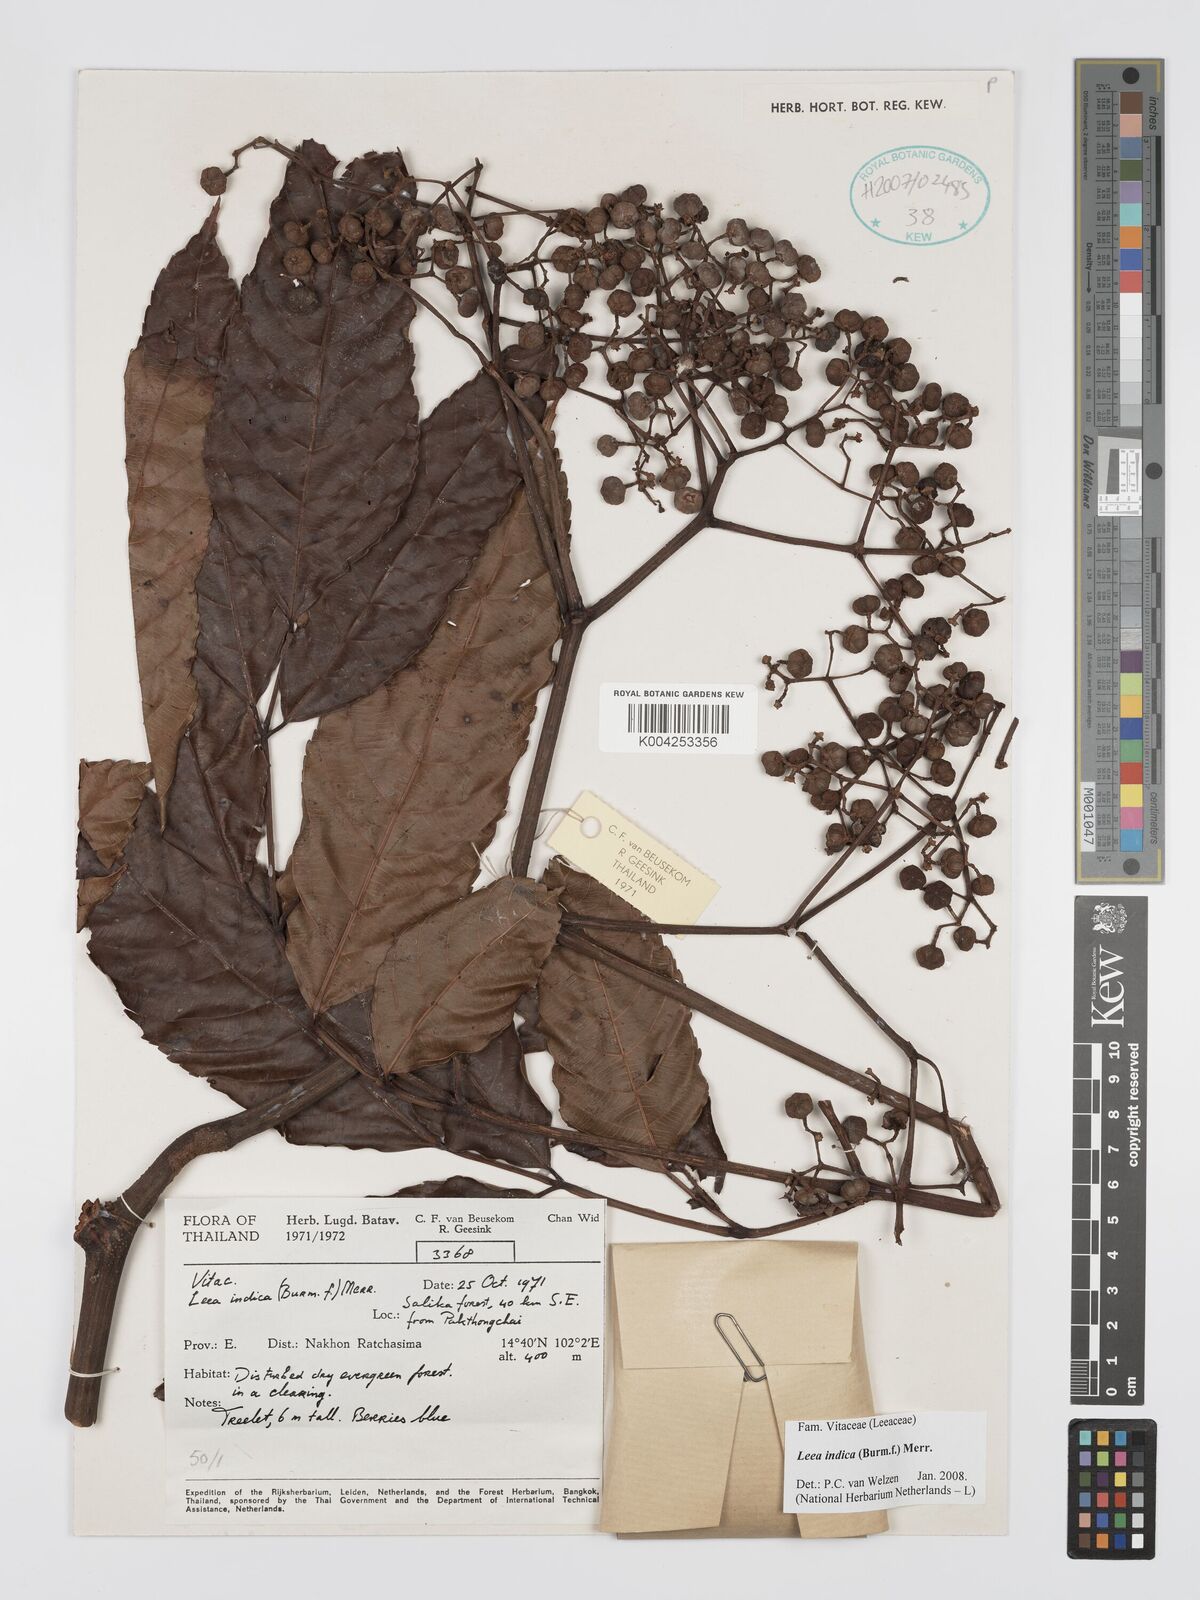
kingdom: Plantae
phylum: Tracheophyta
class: Magnoliopsida
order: Vitales
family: Vitaceae
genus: Leea
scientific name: Leea indica
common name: Bandicoot-berry
